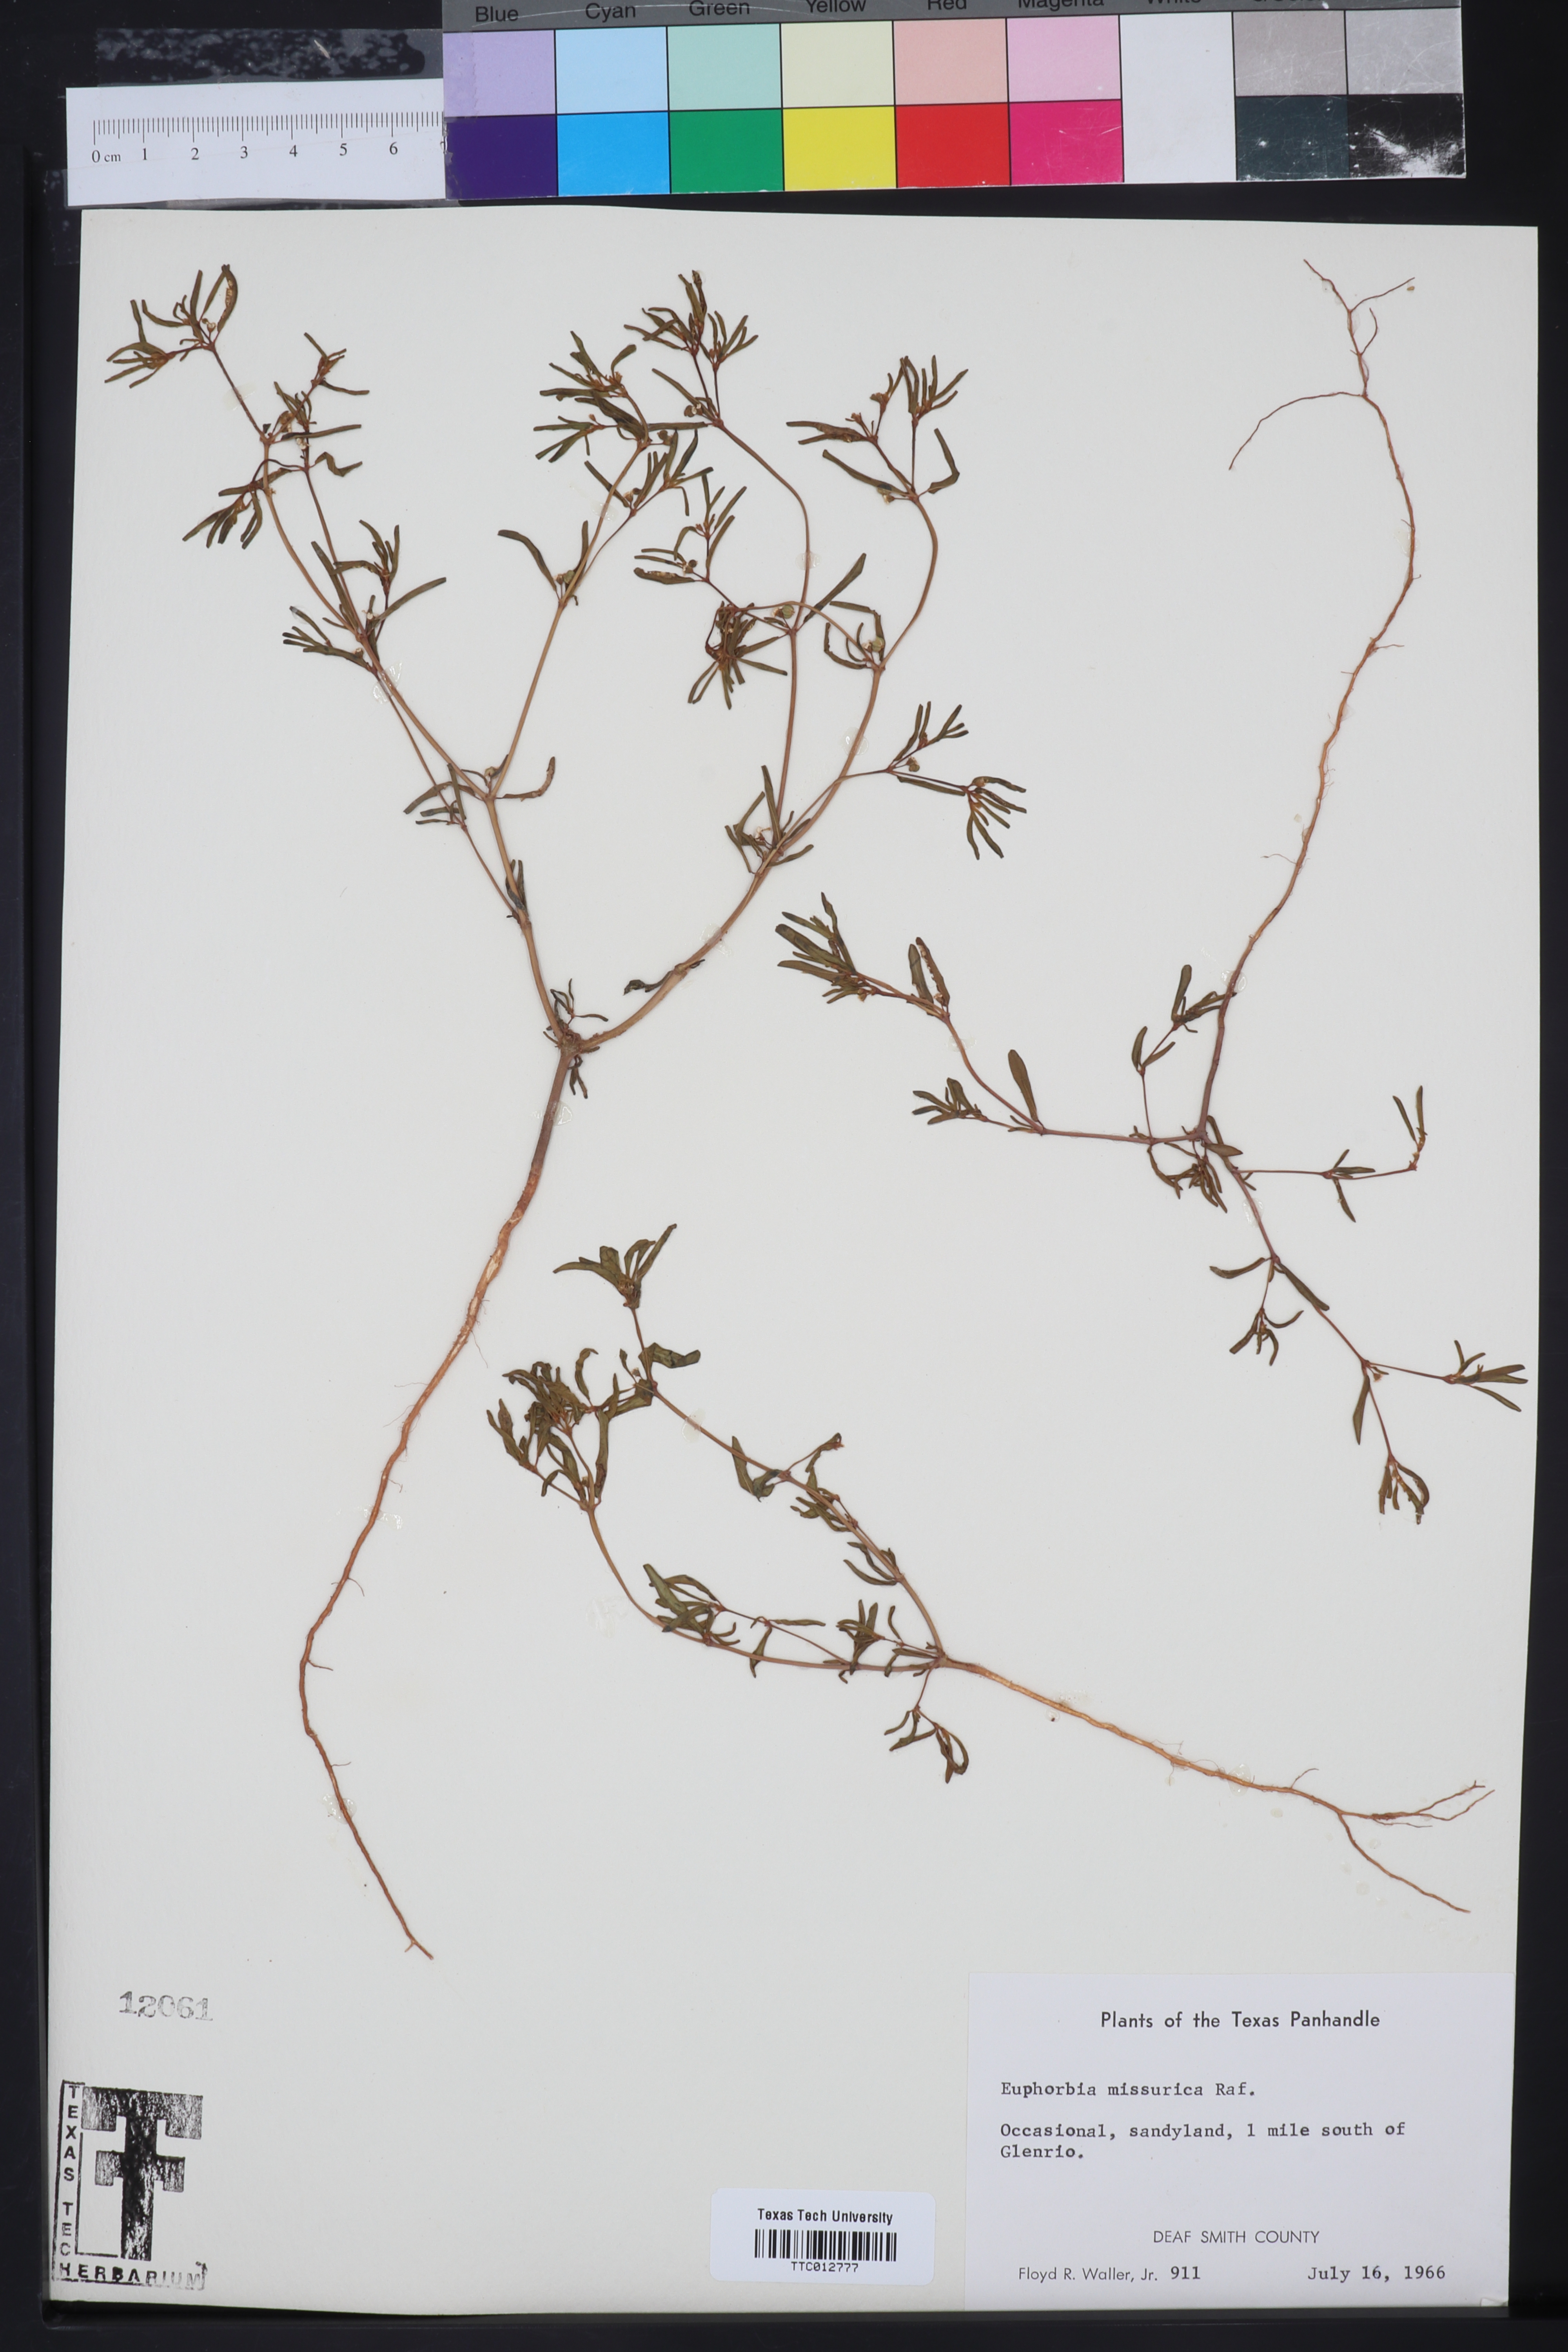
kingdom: Plantae
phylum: Tracheophyta
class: Magnoliopsida
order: Malpighiales
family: Euphorbiaceae
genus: Euphorbia
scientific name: Euphorbia missurica
